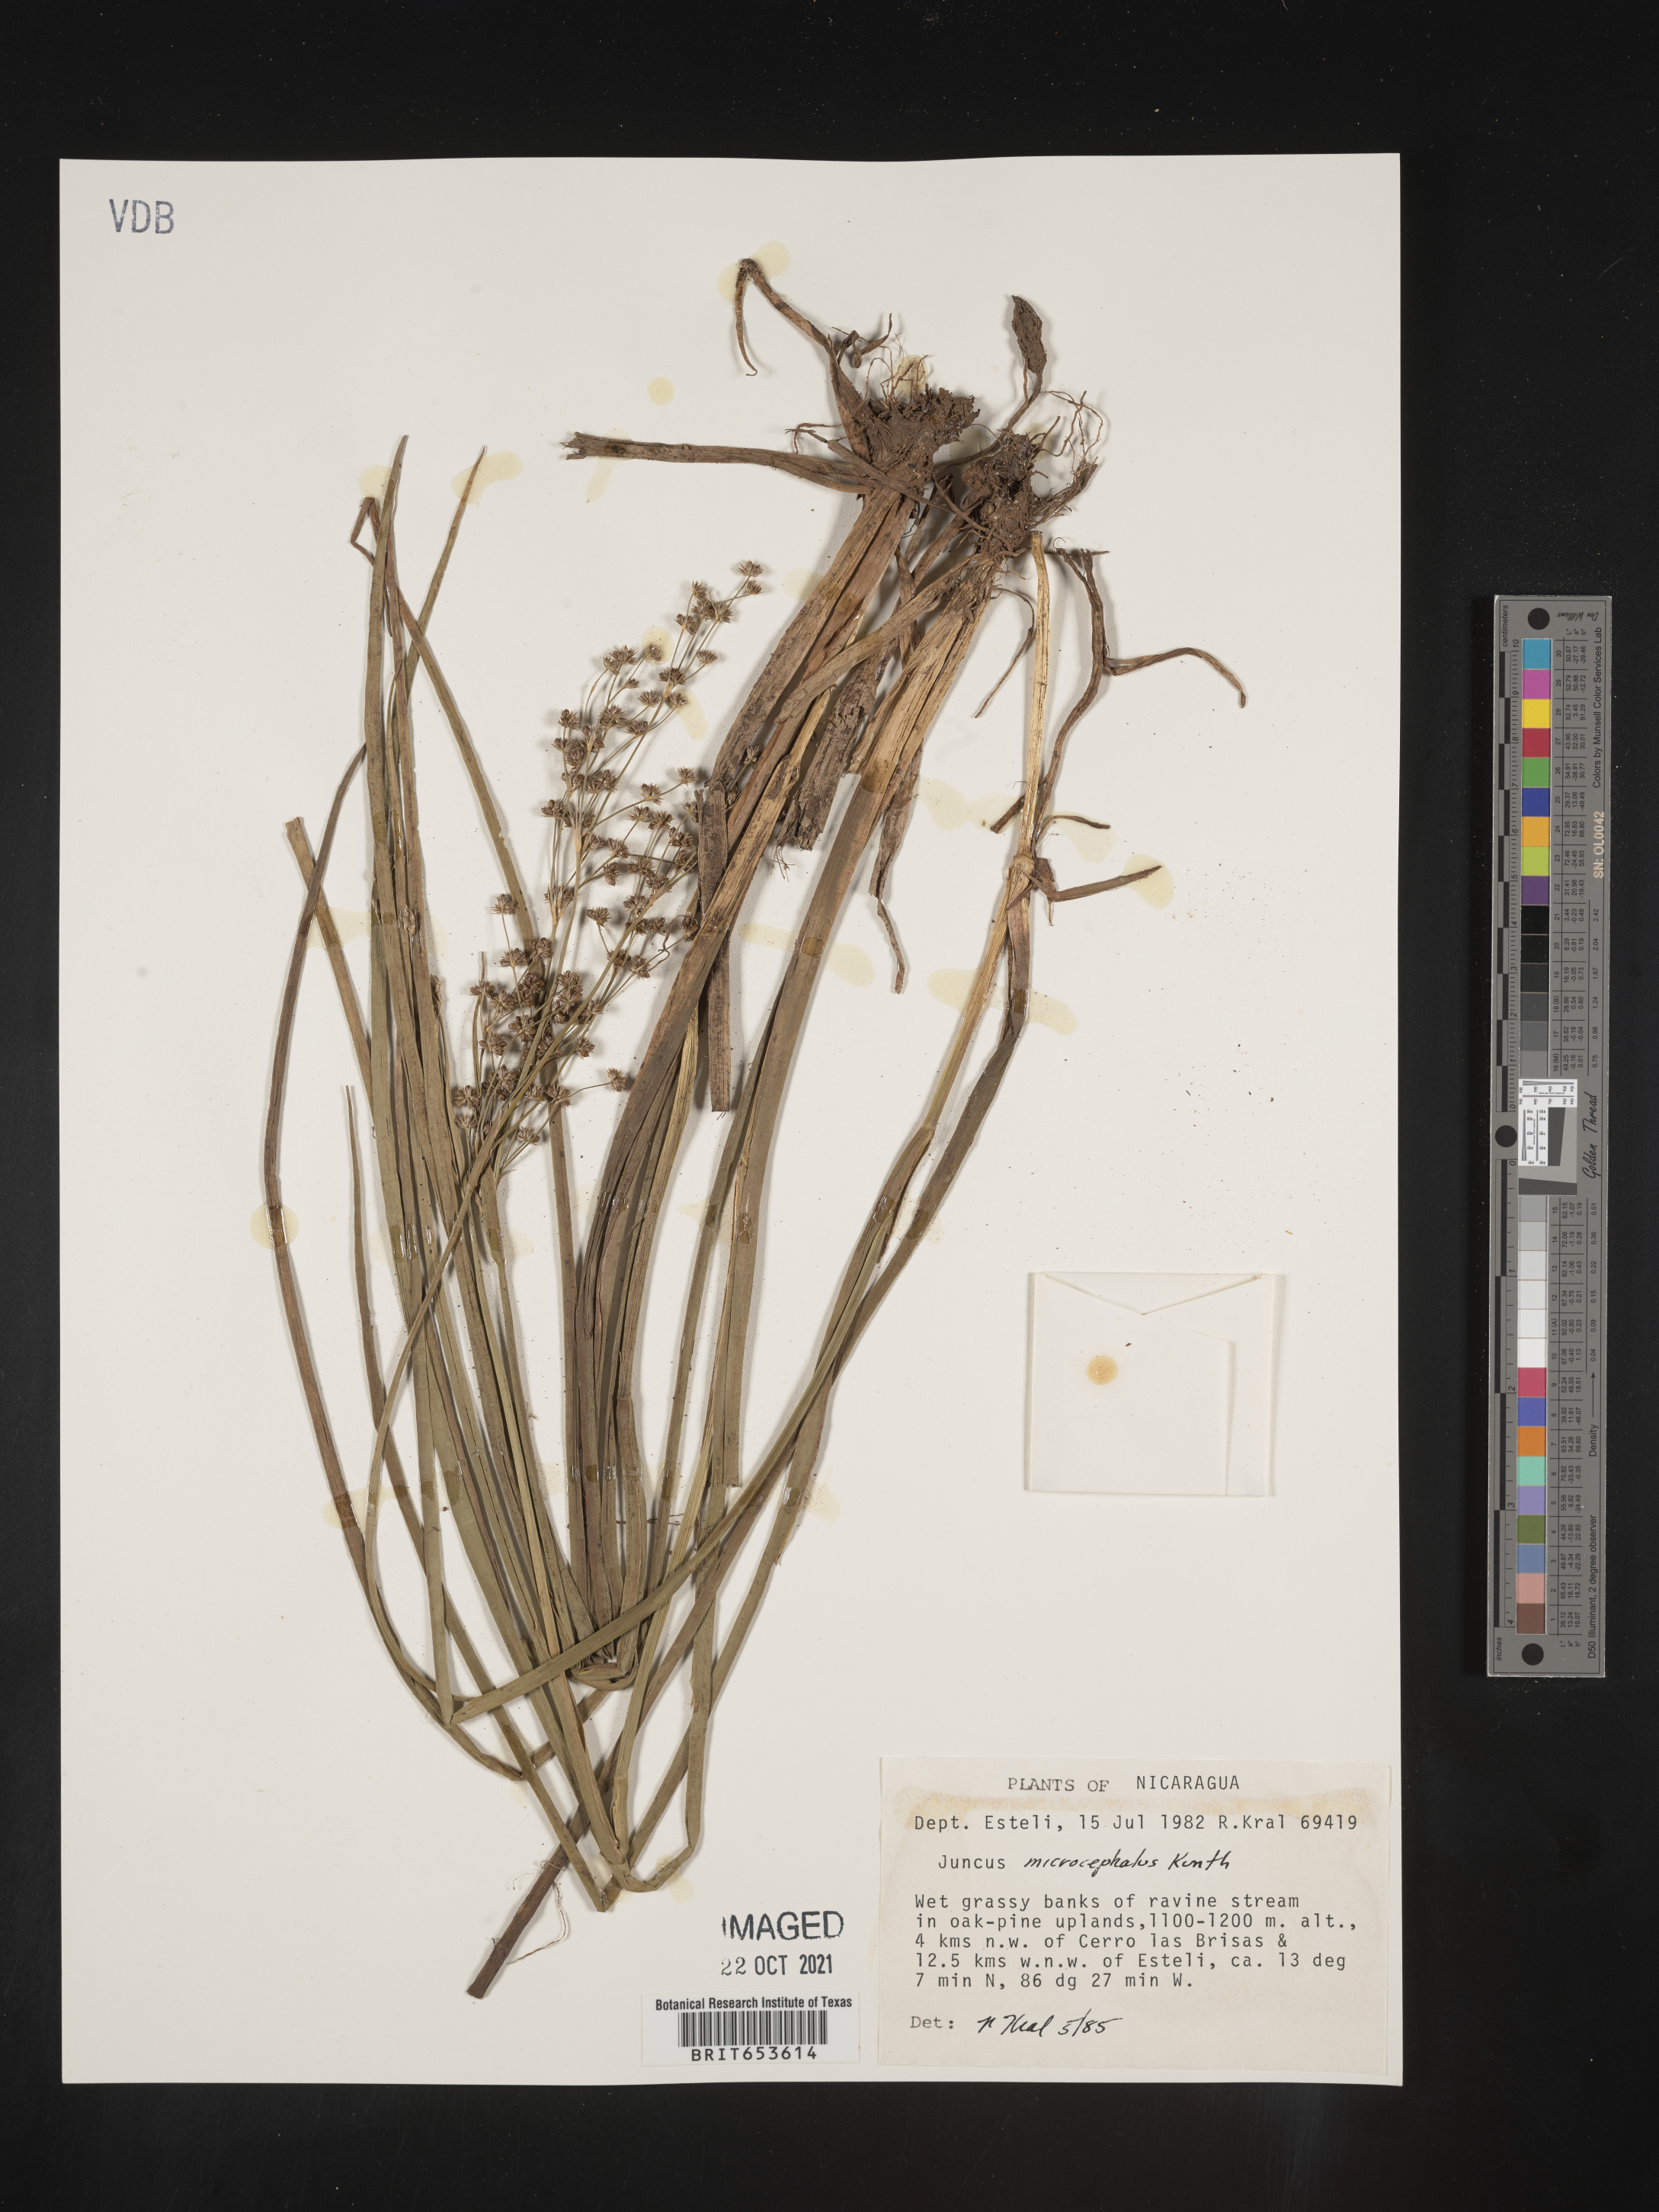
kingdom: Plantae
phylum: Tracheophyta
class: Liliopsida
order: Poales
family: Juncaceae
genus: Juncus
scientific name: Juncus
